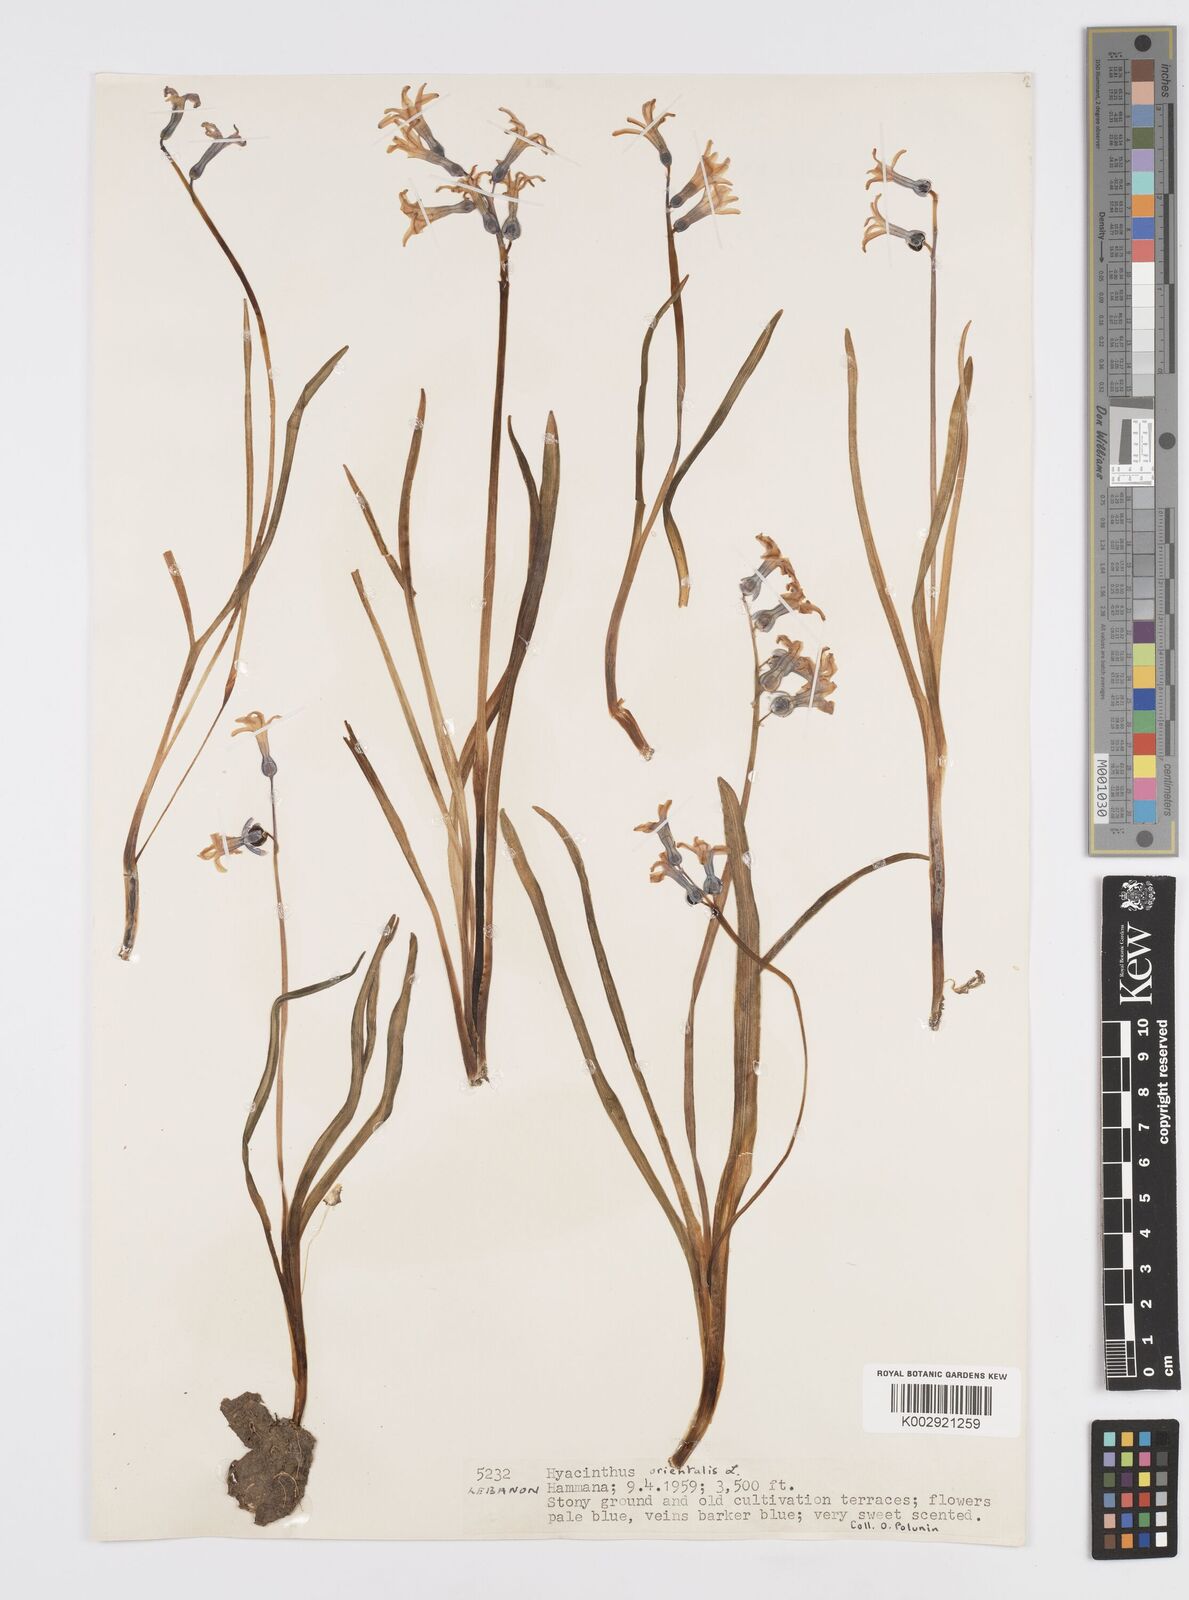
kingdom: Plantae
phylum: Tracheophyta
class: Liliopsida
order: Asparagales
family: Asparagaceae
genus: Hyacinthus
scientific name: Hyacinthus orientalis
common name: Hyacinth
